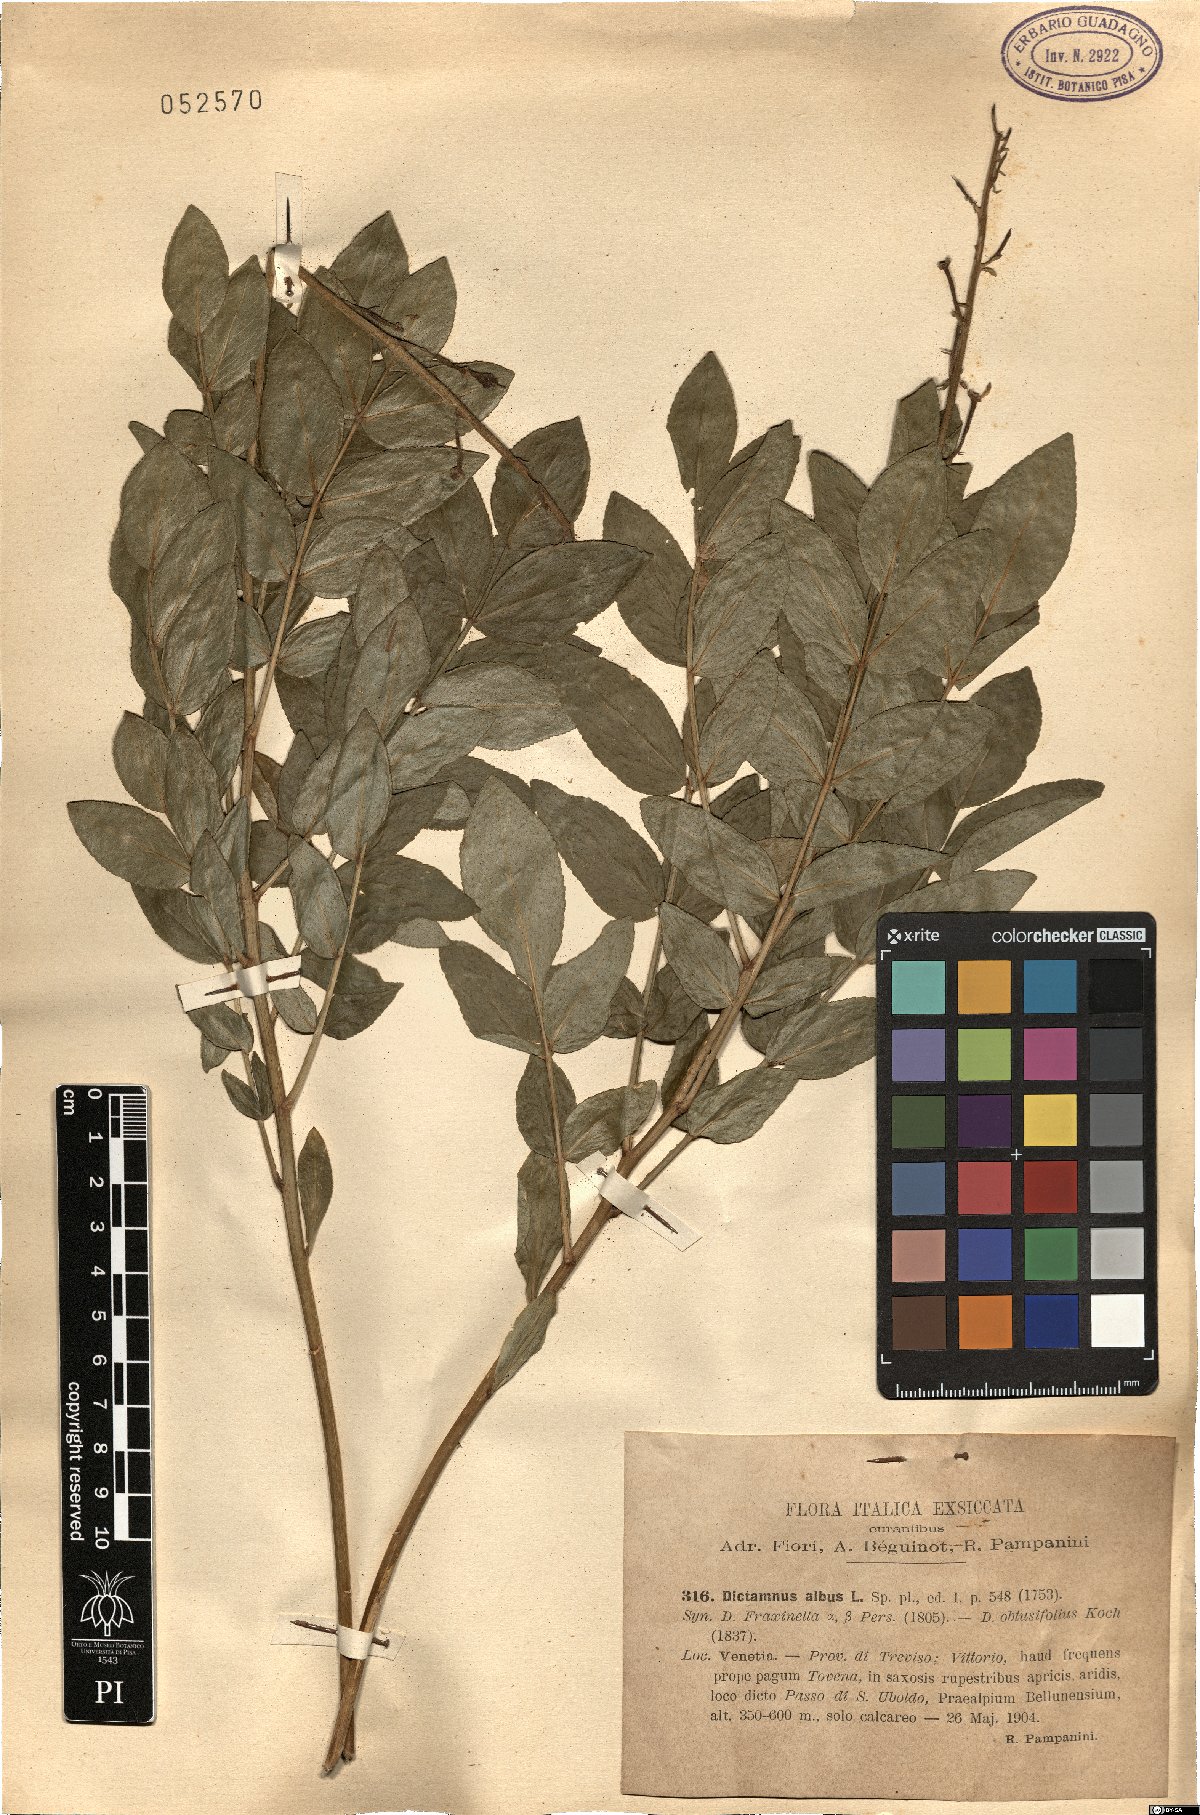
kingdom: Plantae
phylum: Tracheophyta
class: Magnoliopsida
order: Sapindales
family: Rutaceae
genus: Dictamnus
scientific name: Dictamnus albus
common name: Gasplant
